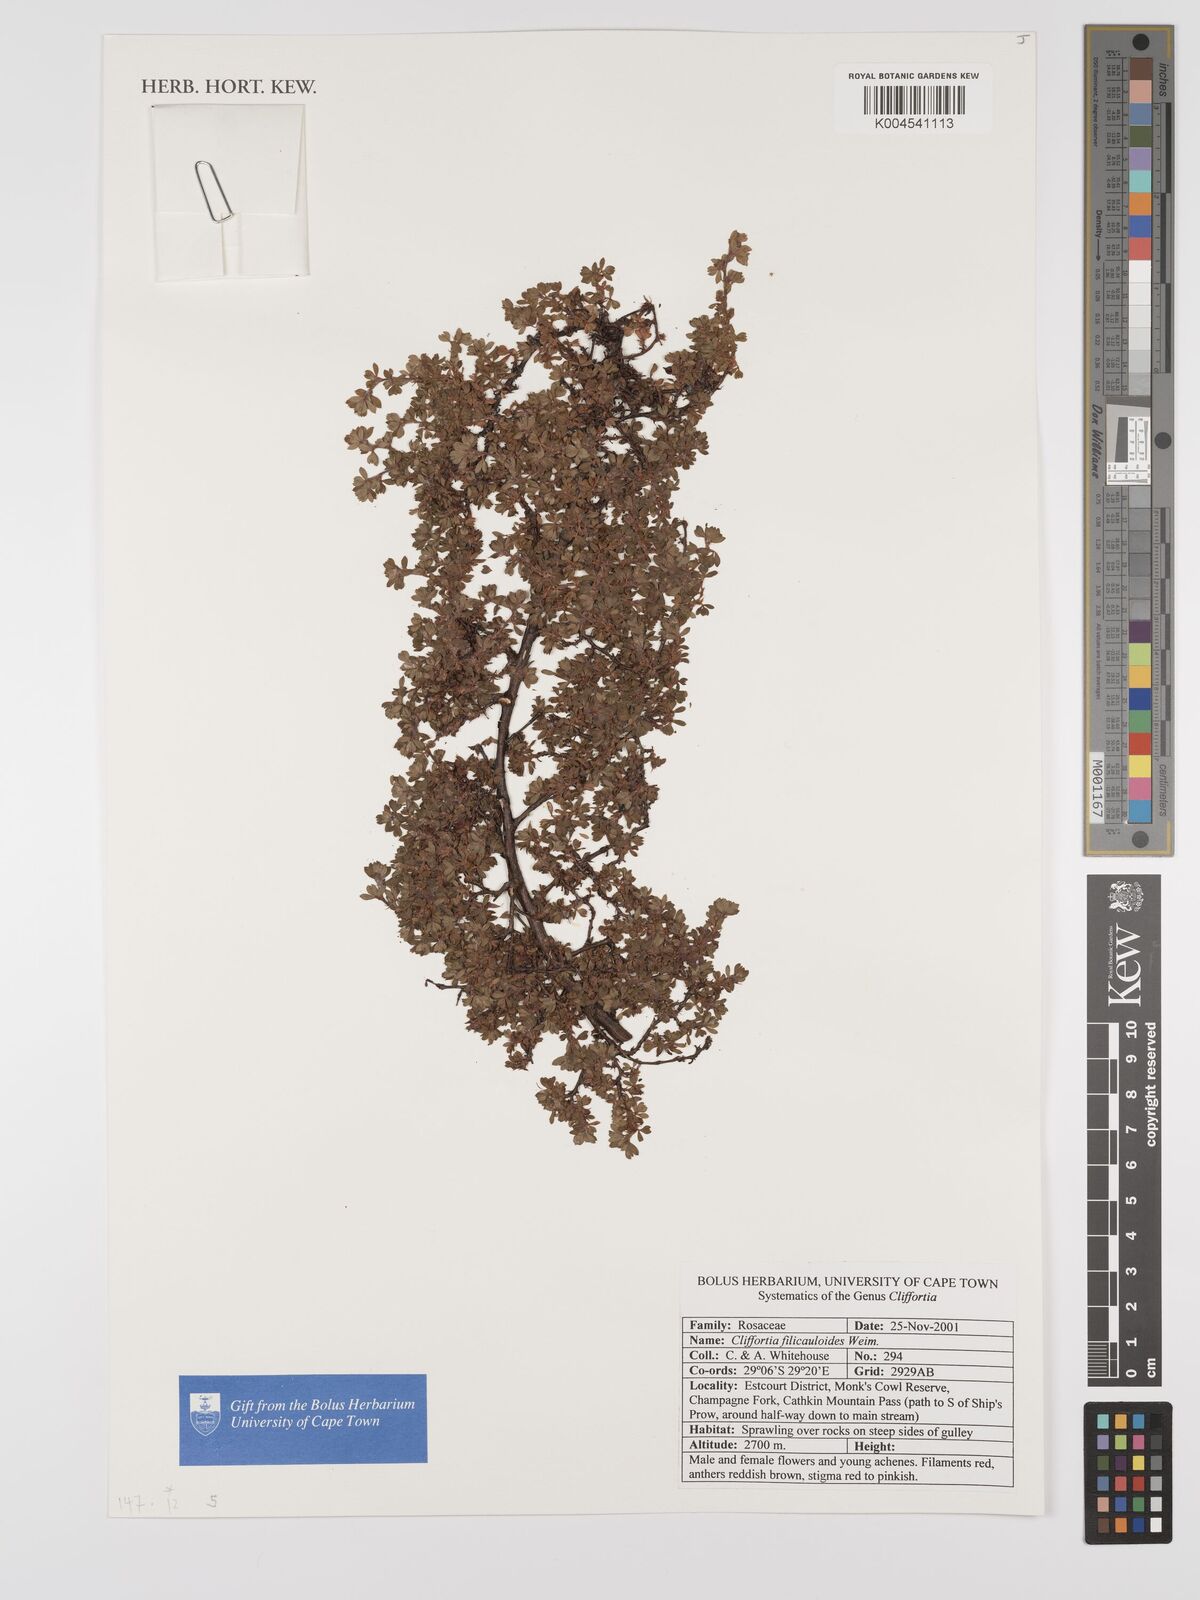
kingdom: Plantae
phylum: Tracheophyta
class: Magnoliopsida
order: Rosales
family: Rosaceae
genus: Cliffortia
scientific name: Cliffortia filicauloides
